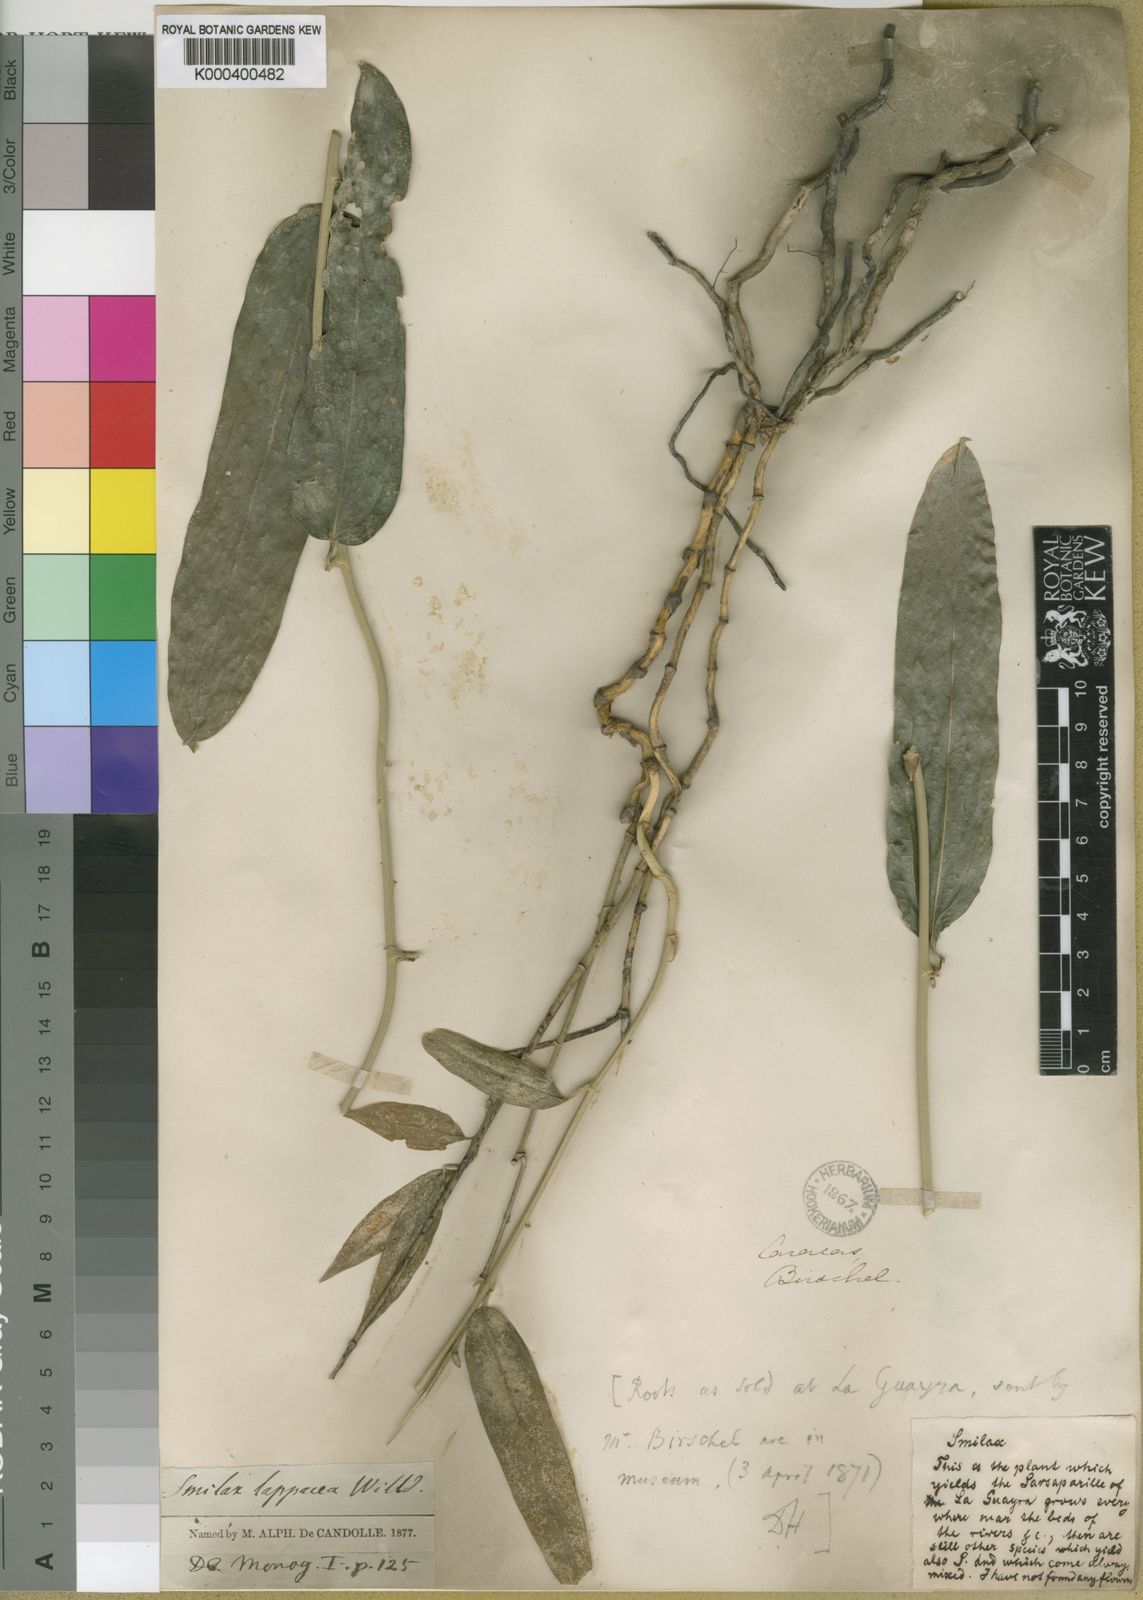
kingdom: Plantae
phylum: Tracheophyta
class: Liliopsida
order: Liliales
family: Smilacaceae
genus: Smilax
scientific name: Smilax lappacea
